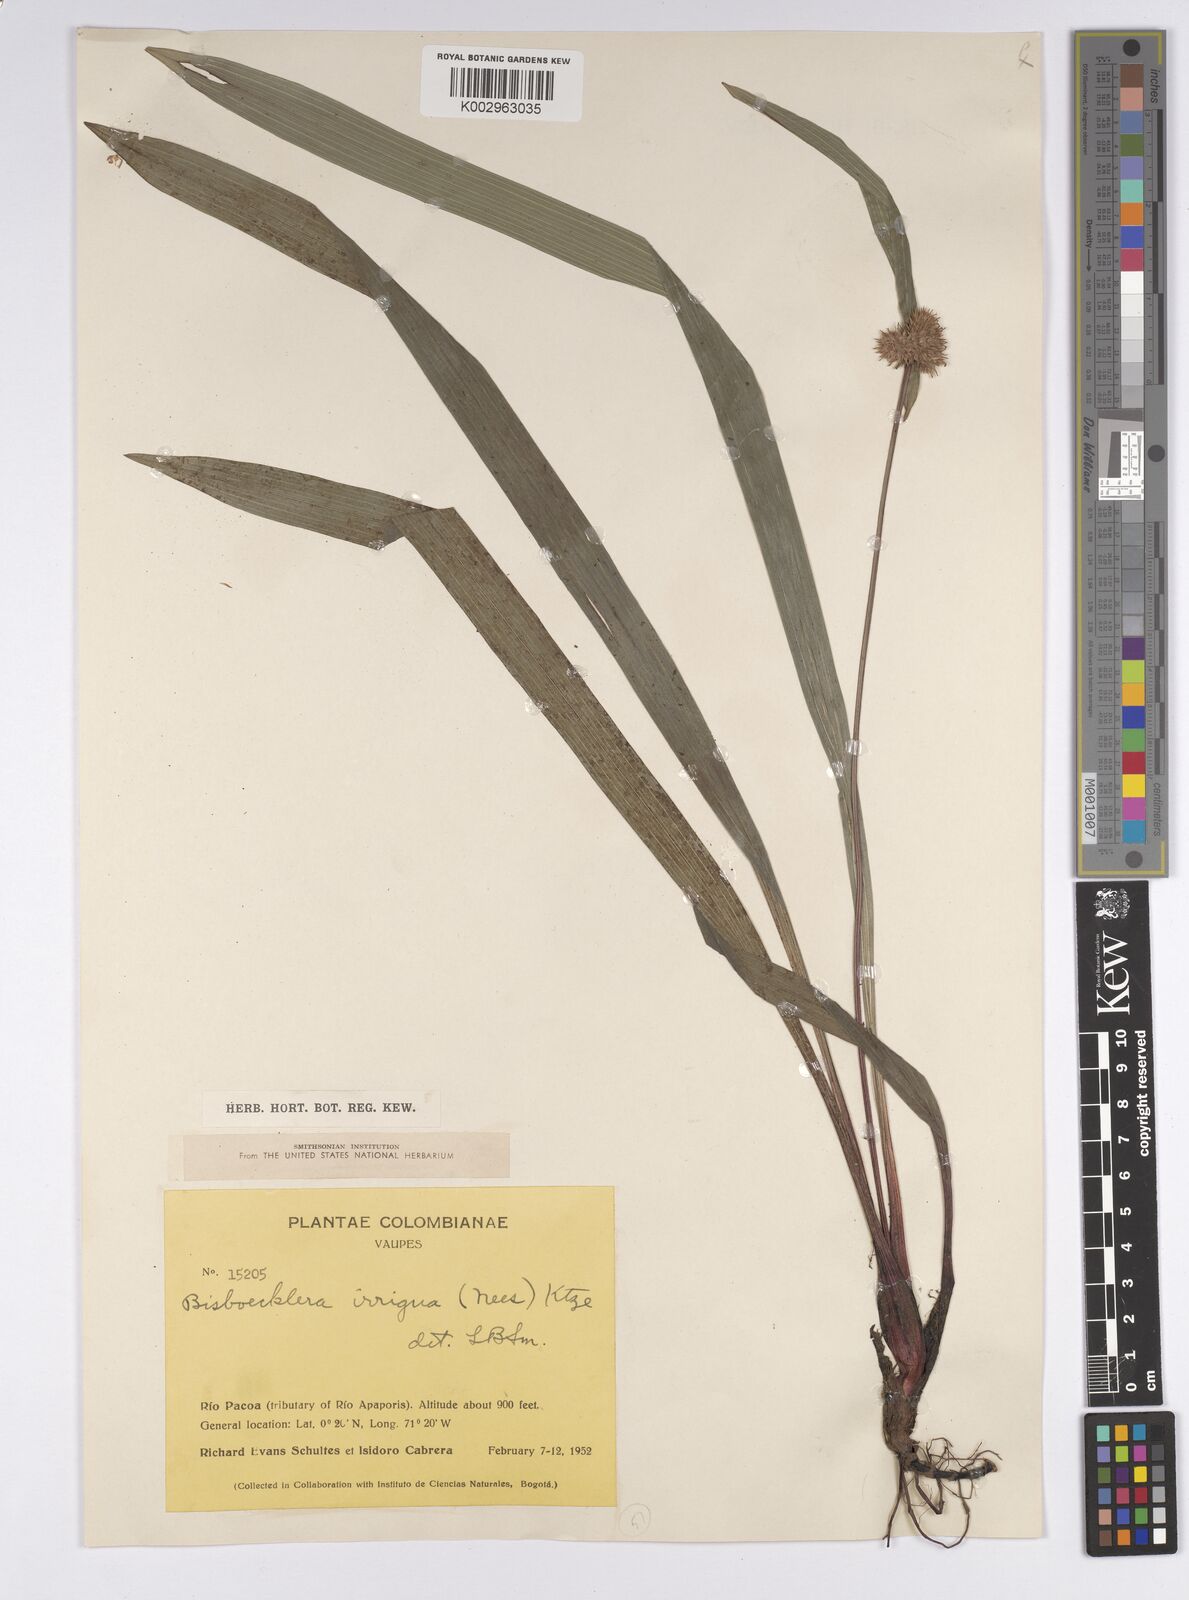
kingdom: Plantae
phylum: Tracheophyta
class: Liliopsida
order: Poales
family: Cyperaceae
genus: Bisboeckelera
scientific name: Bisboeckelera irrigua
